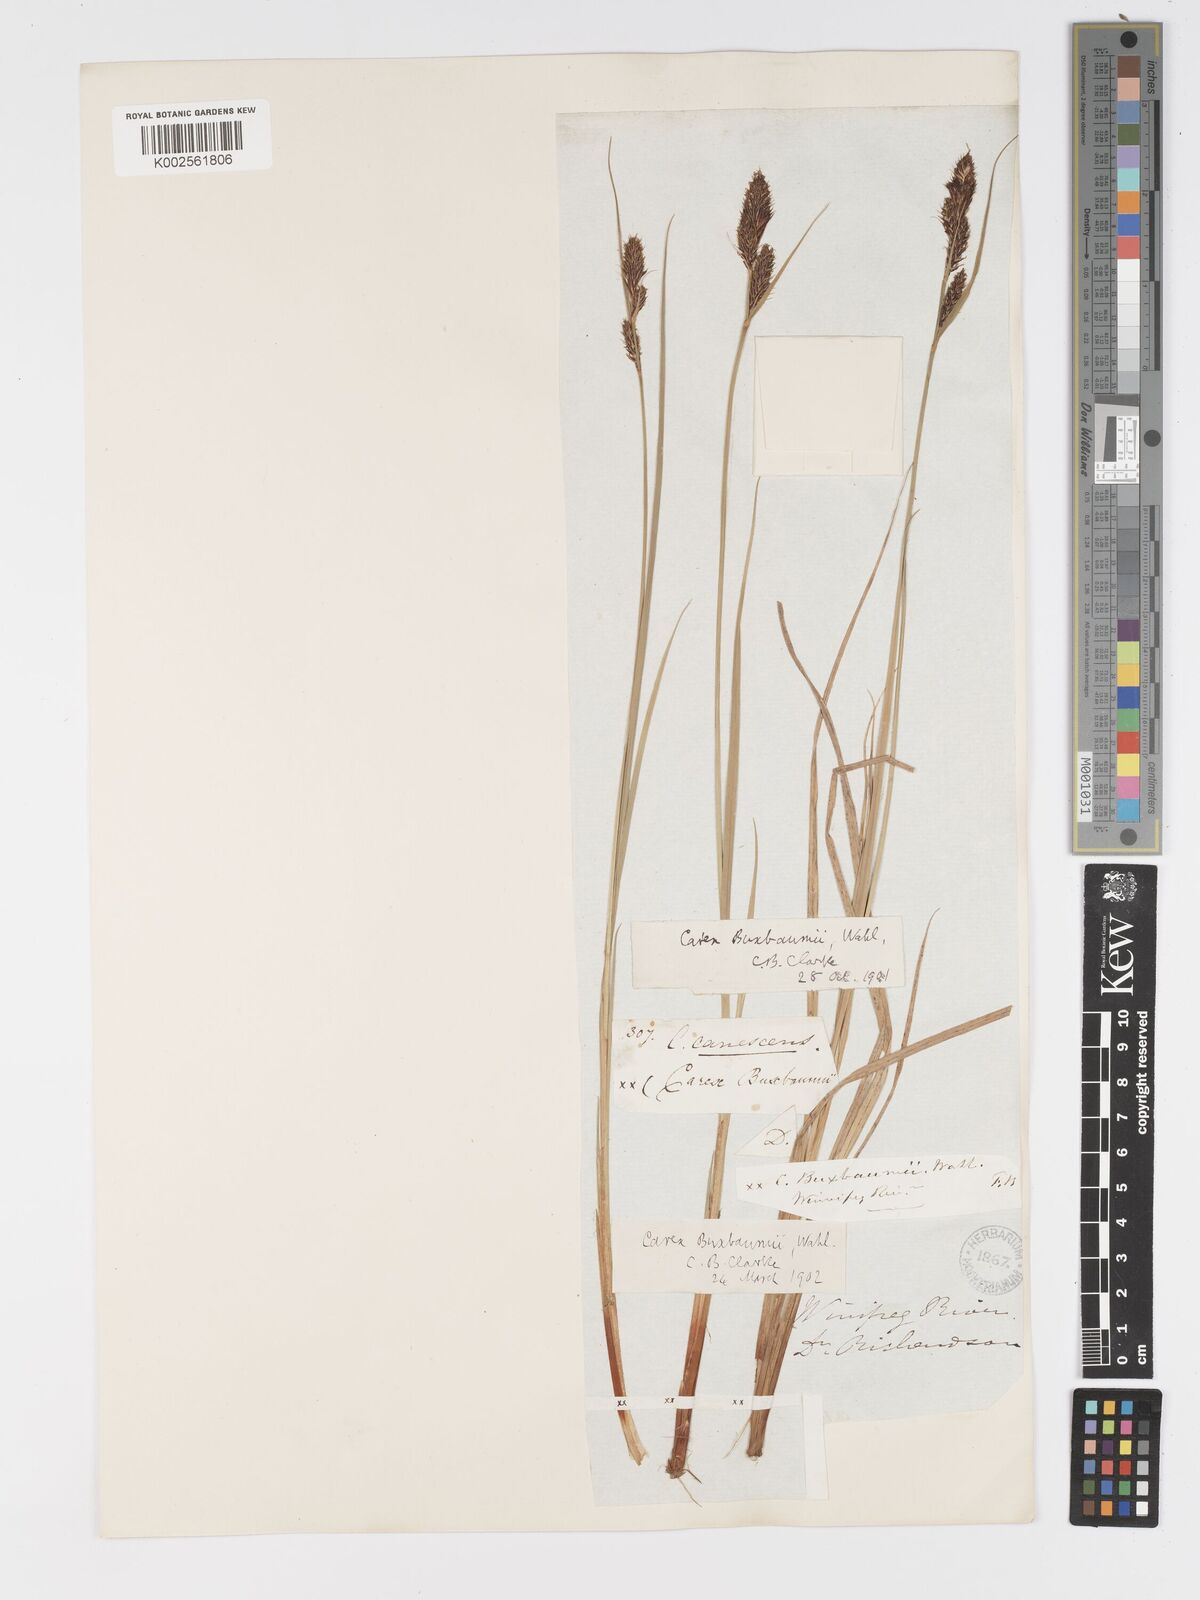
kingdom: Plantae
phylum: Tracheophyta
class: Liliopsida
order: Poales
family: Cyperaceae
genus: Carex
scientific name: Carex buxbaumii
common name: Club sedge
